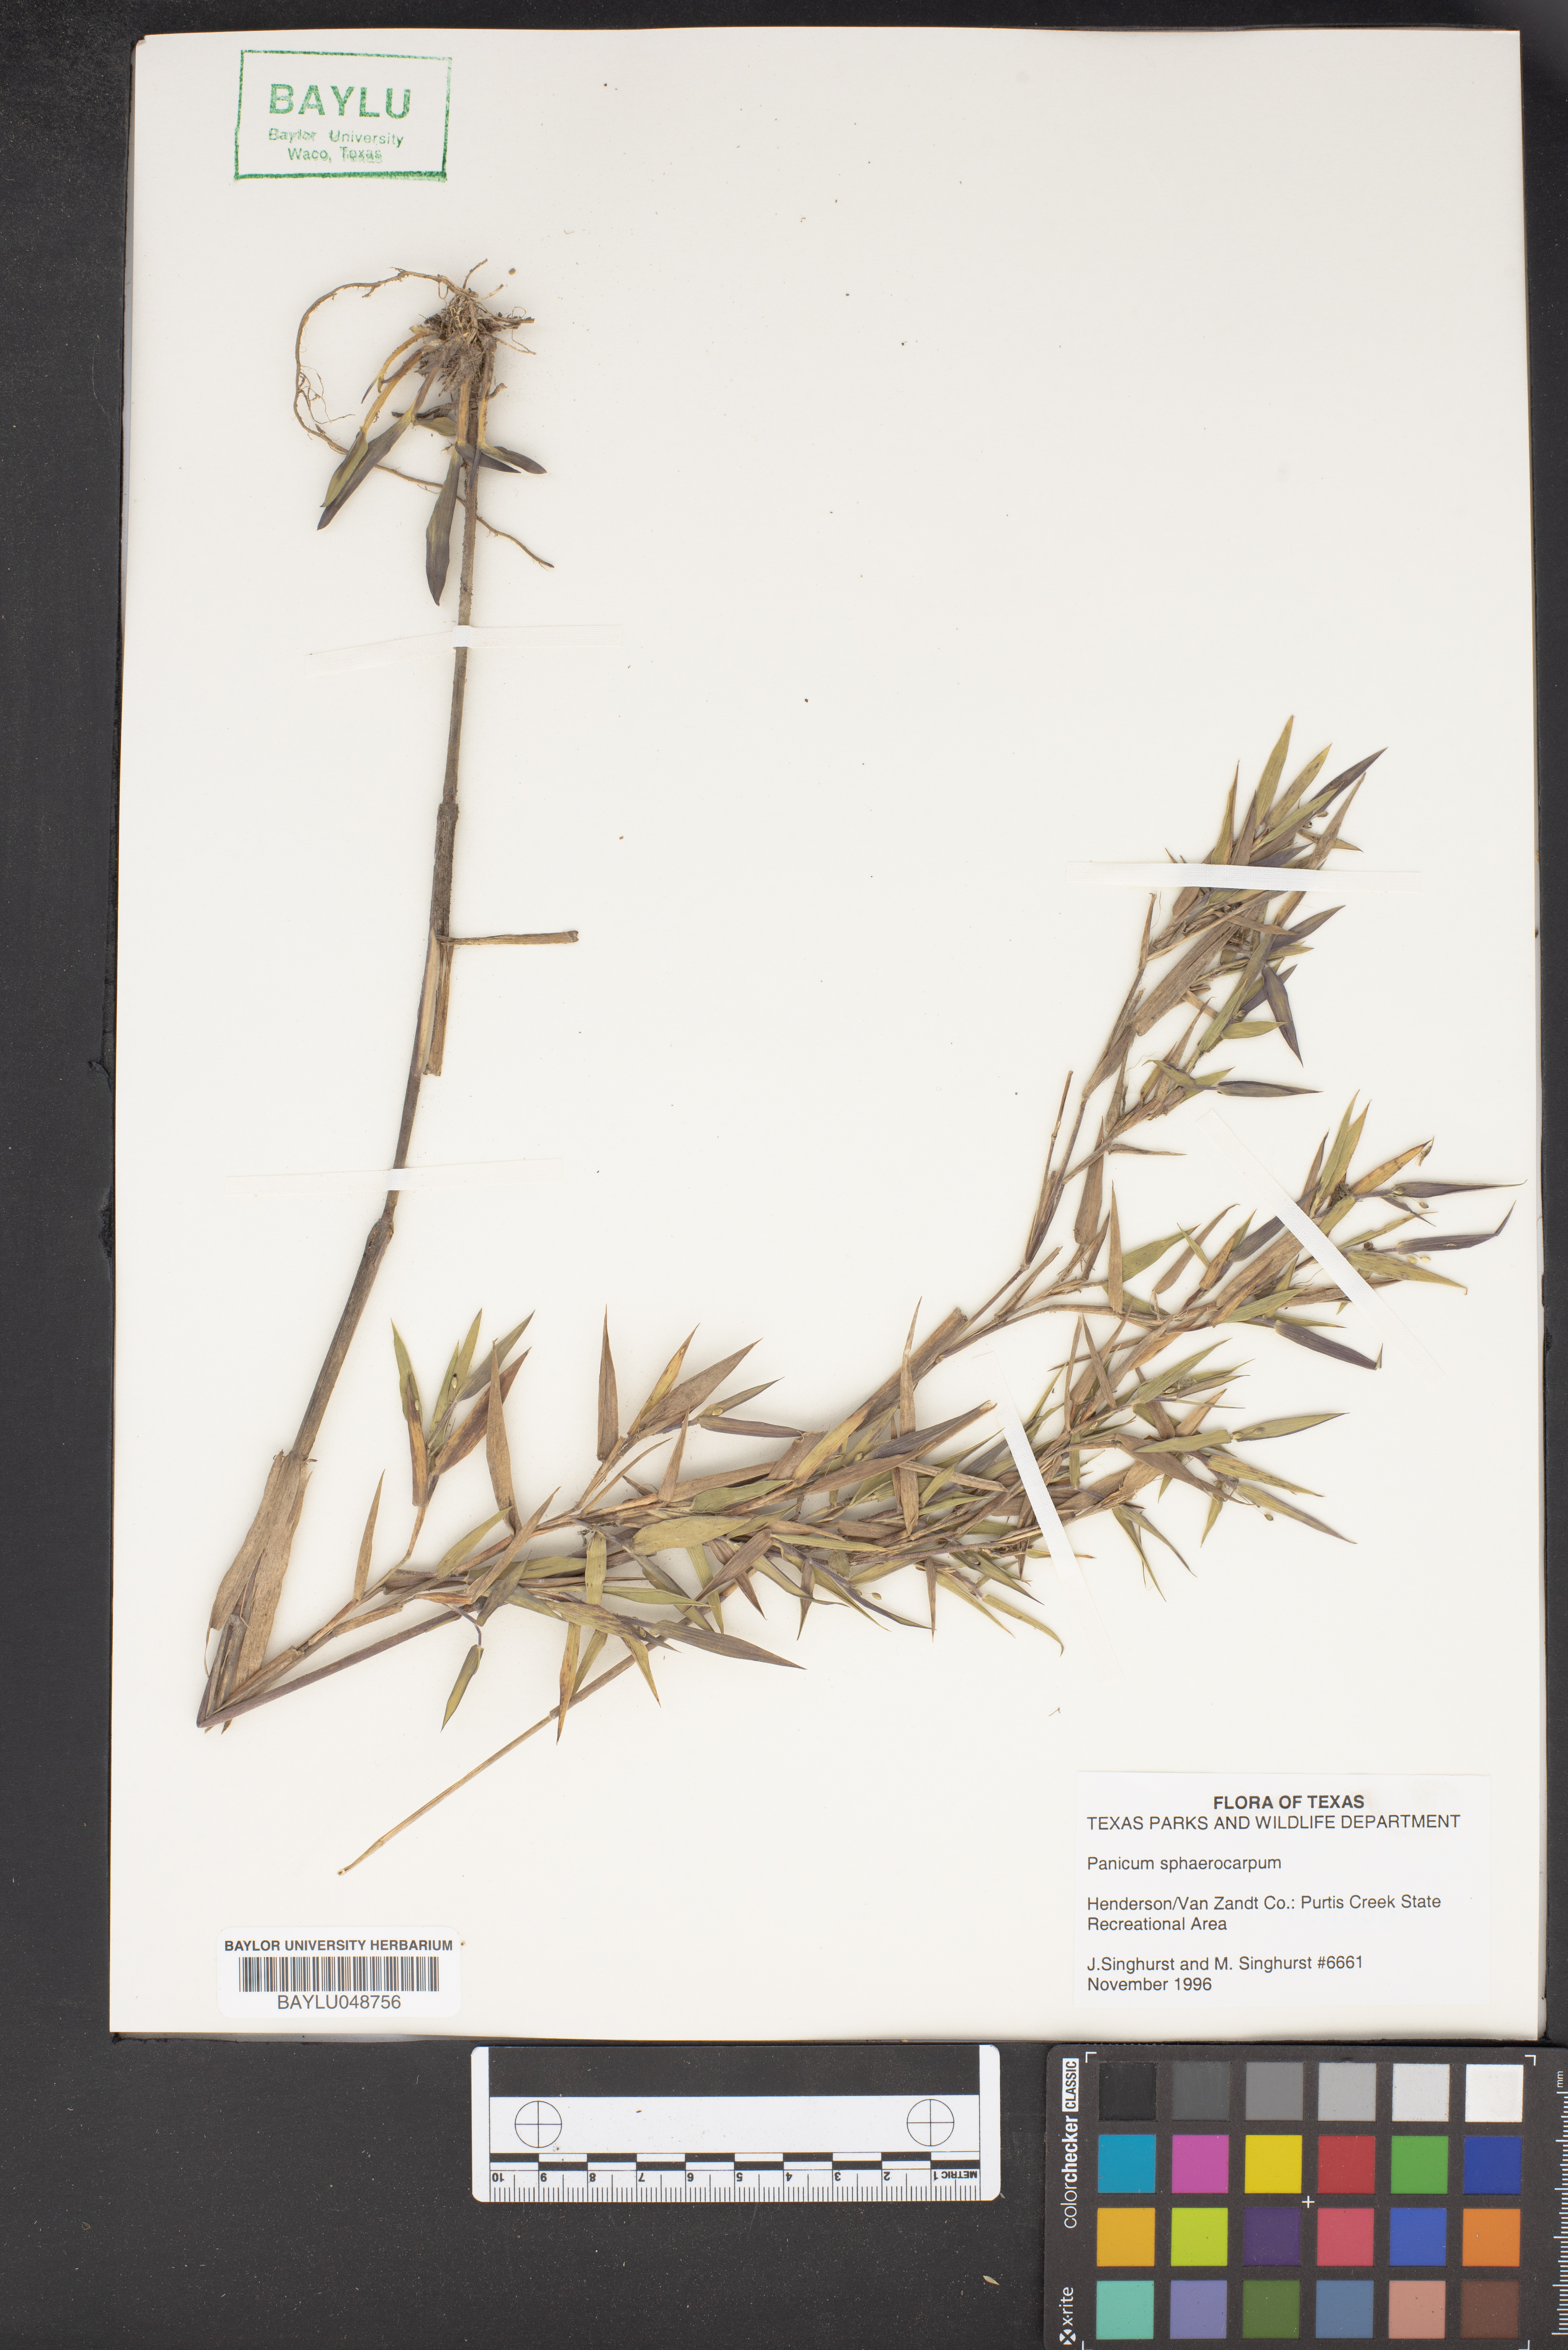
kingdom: Plantae
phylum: Tracheophyta
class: Liliopsida
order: Poales
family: Poaceae
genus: Setaria
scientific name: Setaria tenax
